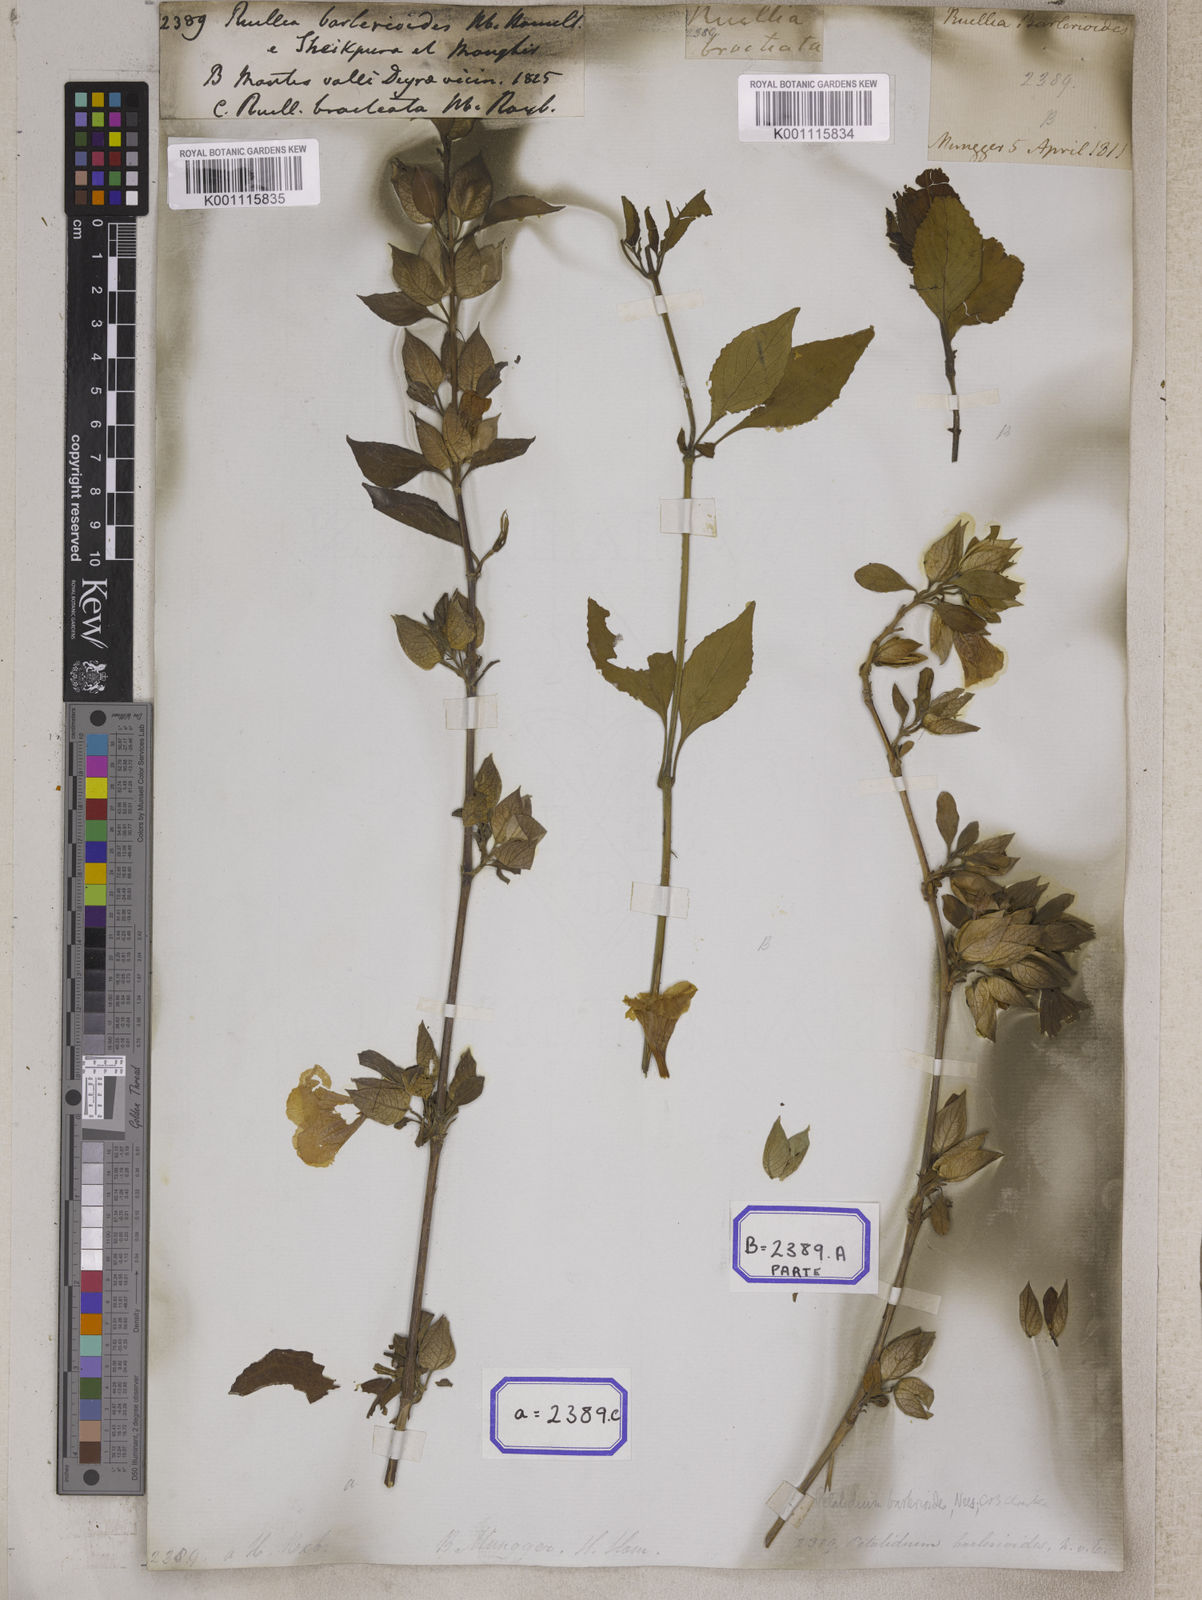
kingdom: Plantae
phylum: Tracheophyta
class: Magnoliopsida
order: Lamiales
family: Acanthaceae
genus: Eranthemum
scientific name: Eranthemum suffruticosum
